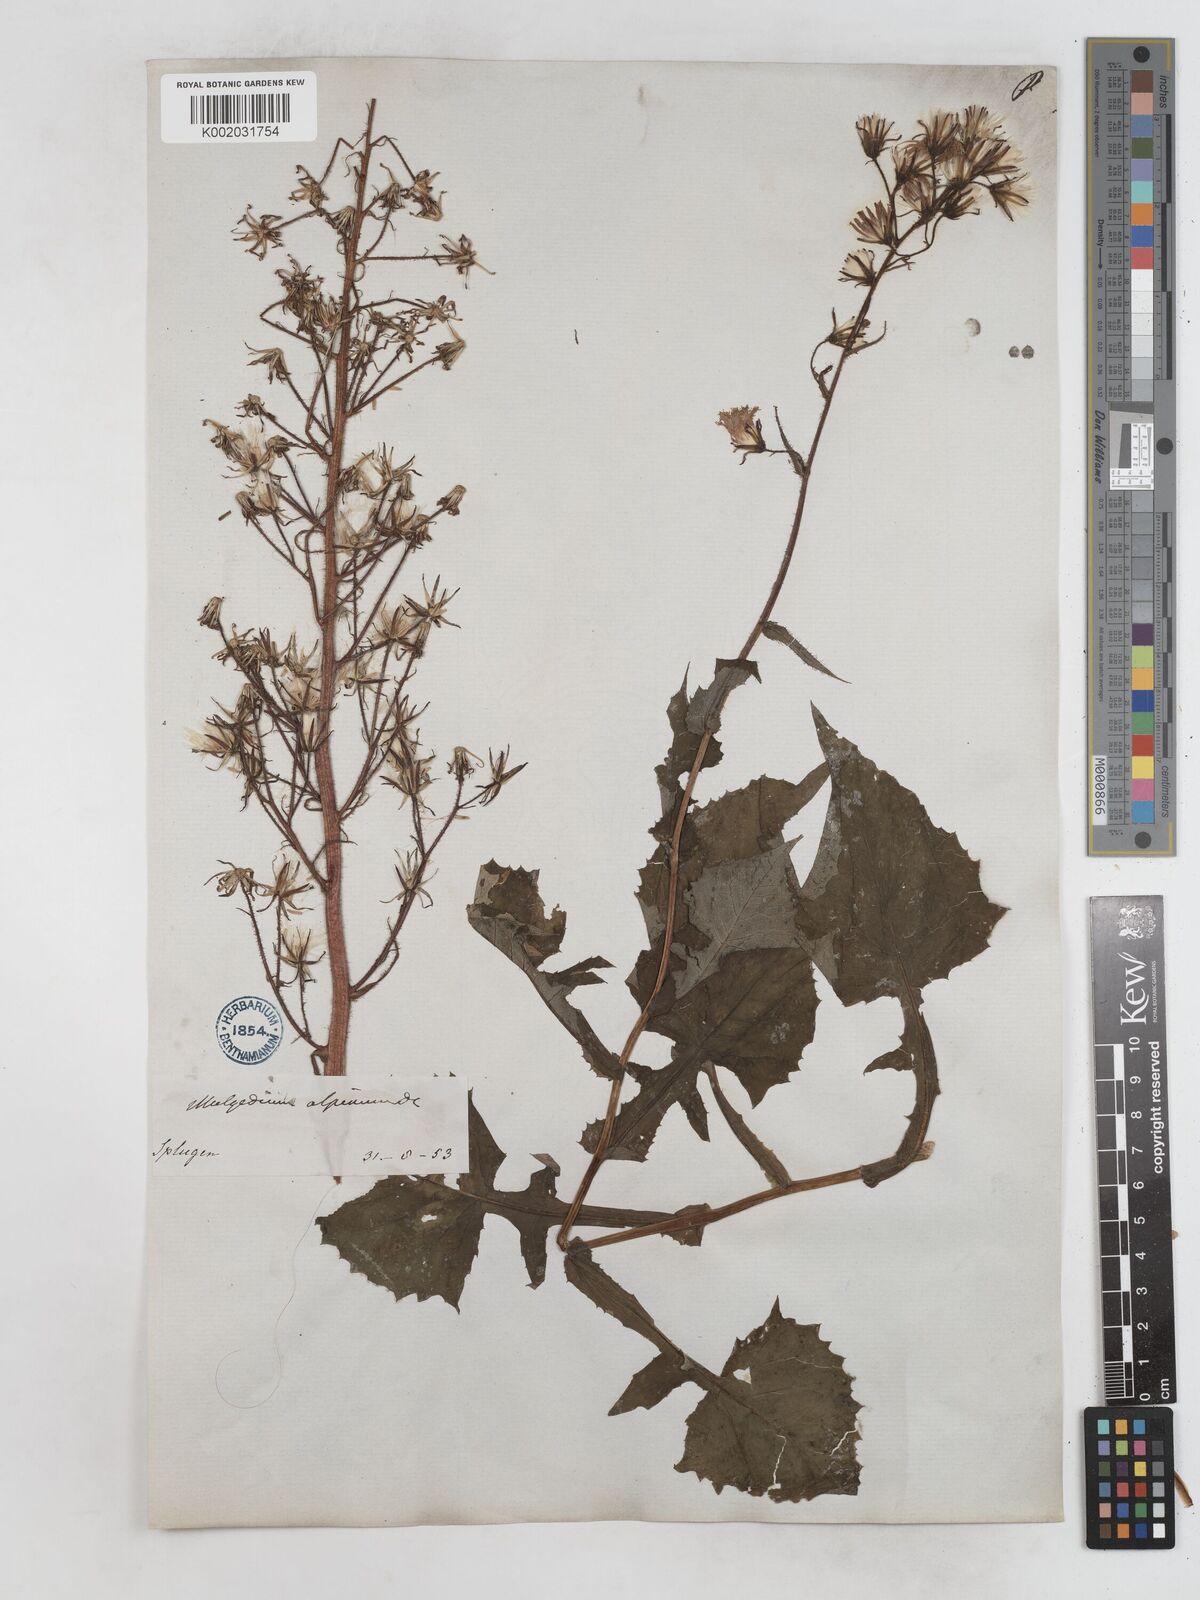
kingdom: Plantae
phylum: Tracheophyta
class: Magnoliopsida
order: Asterales
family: Asteraceae
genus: Cicerbita
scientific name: Cicerbita alpina
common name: Alpine blue-sow-thistle
